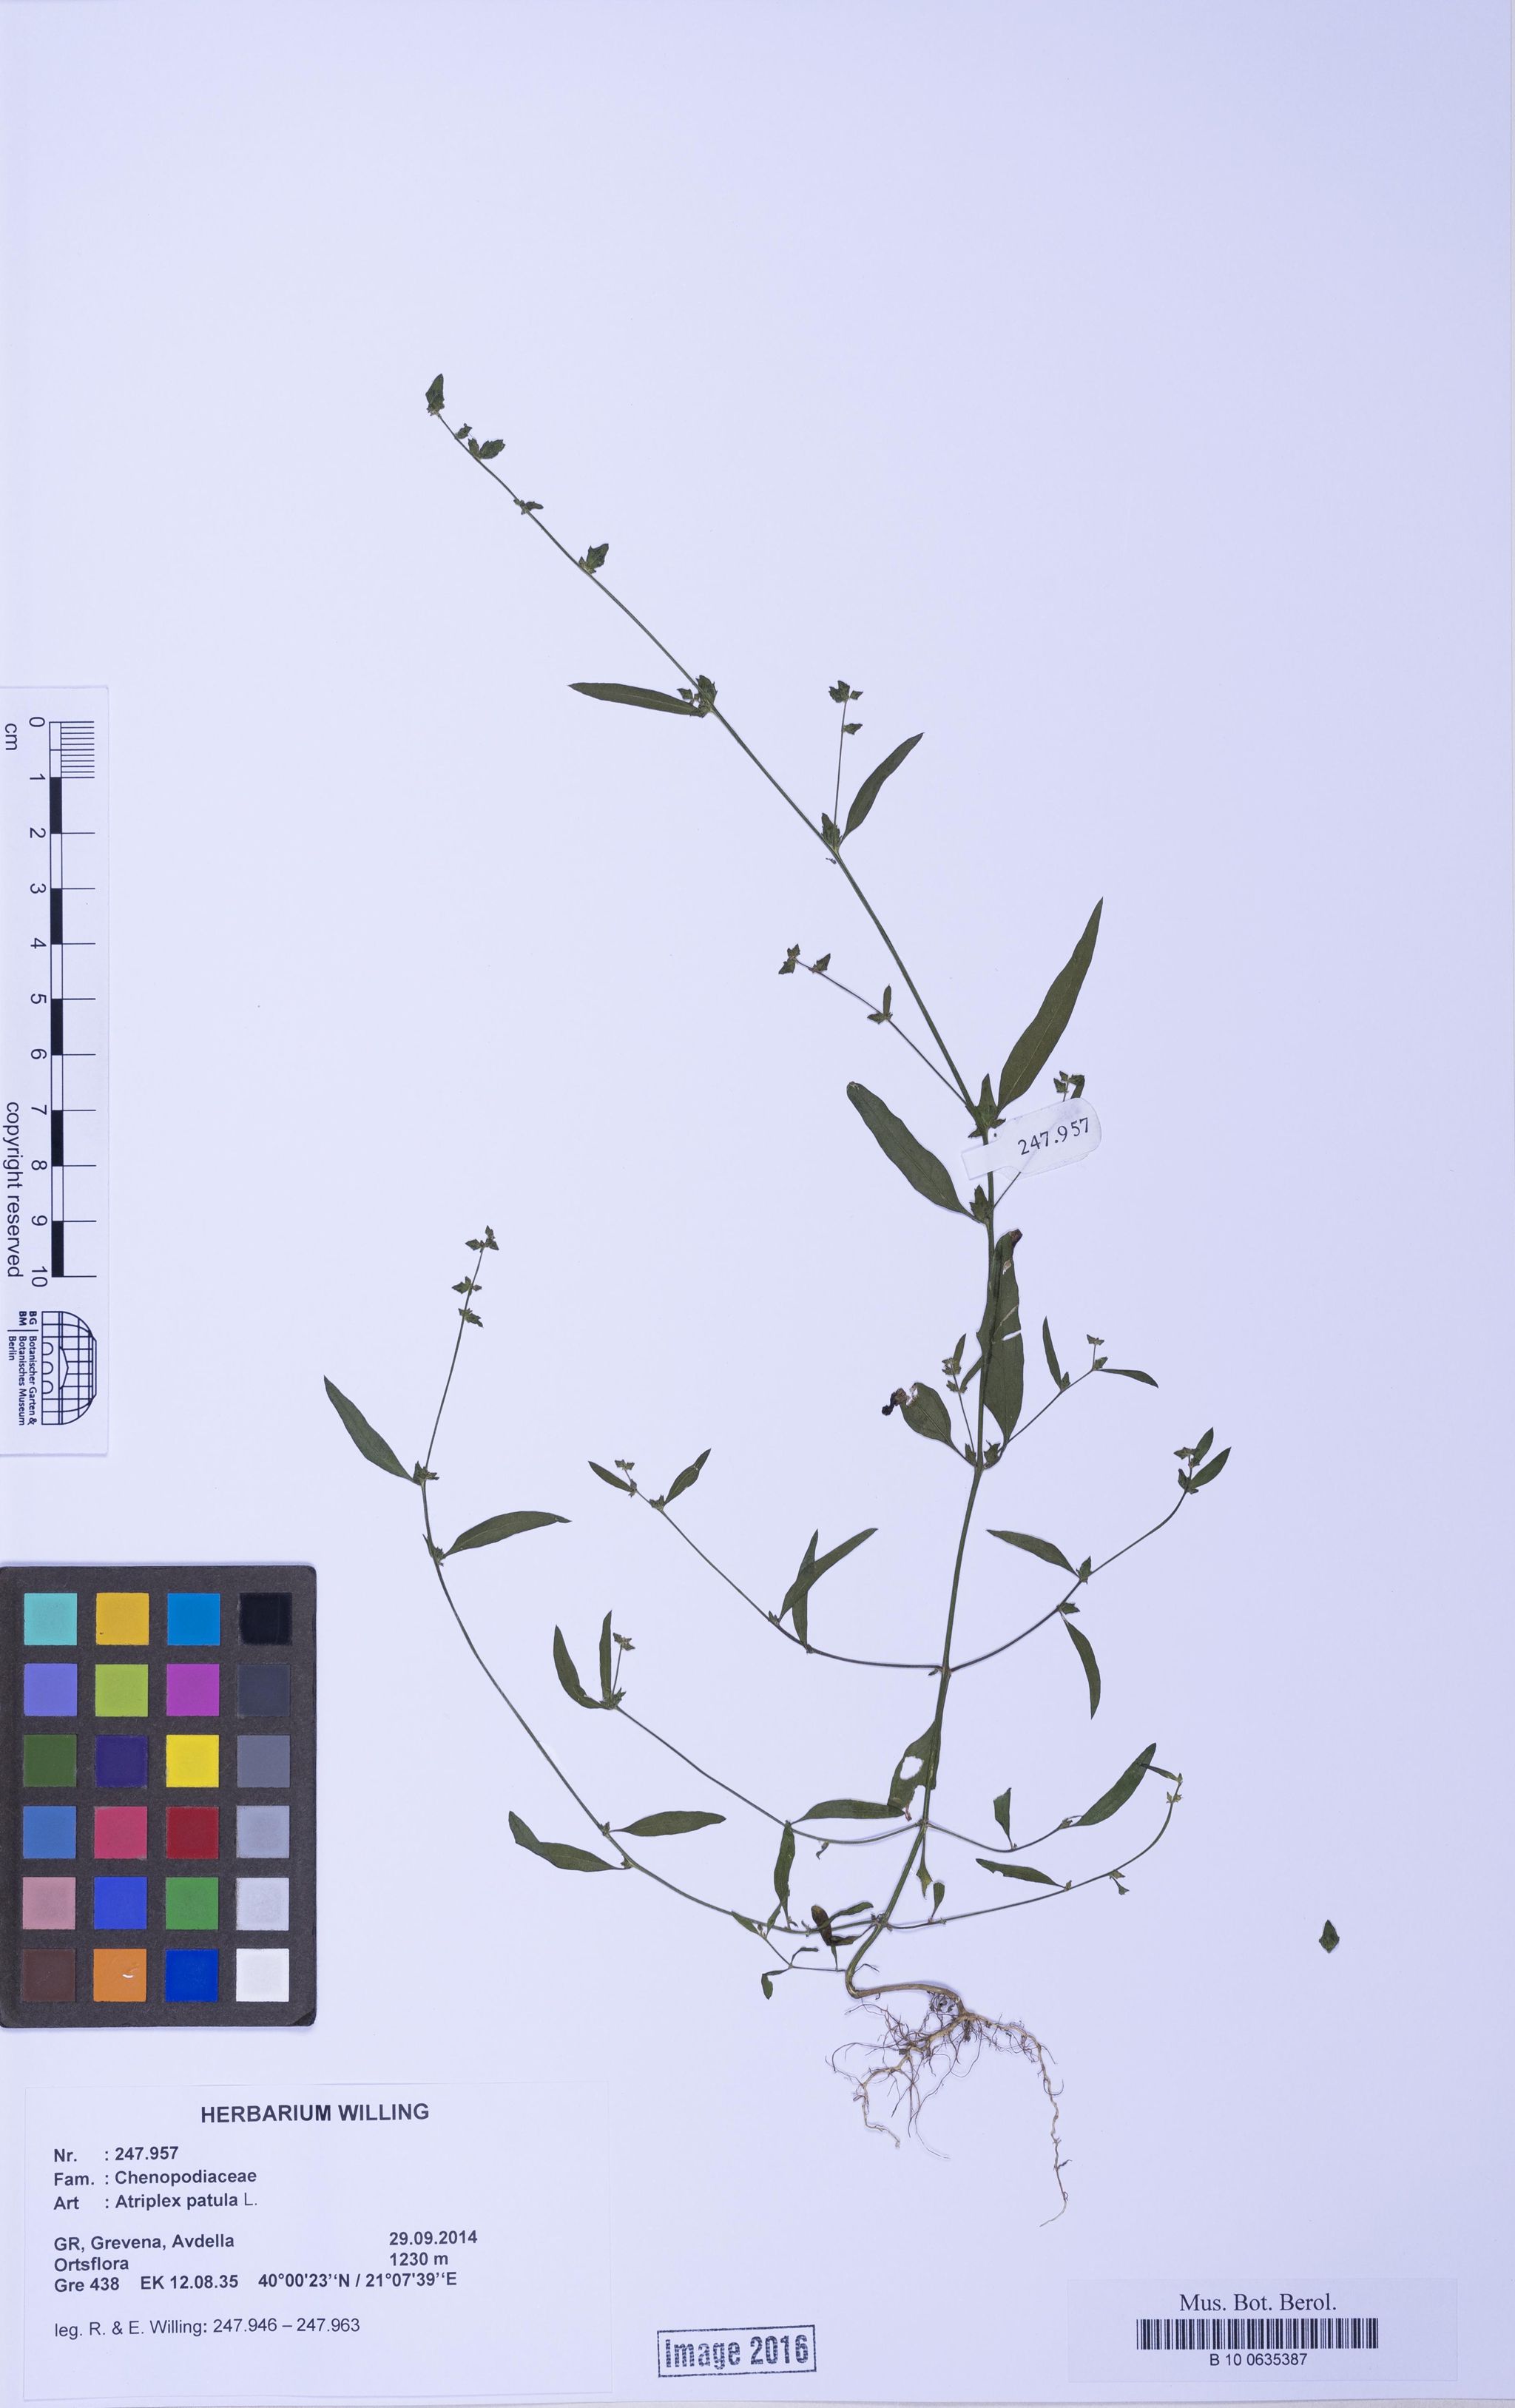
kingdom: Plantae
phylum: Tracheophyta
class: Magnoliopsida
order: Caryophyllales
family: Amaranthaceae
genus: Atriplex
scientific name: Atriplex patula
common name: Common orache
